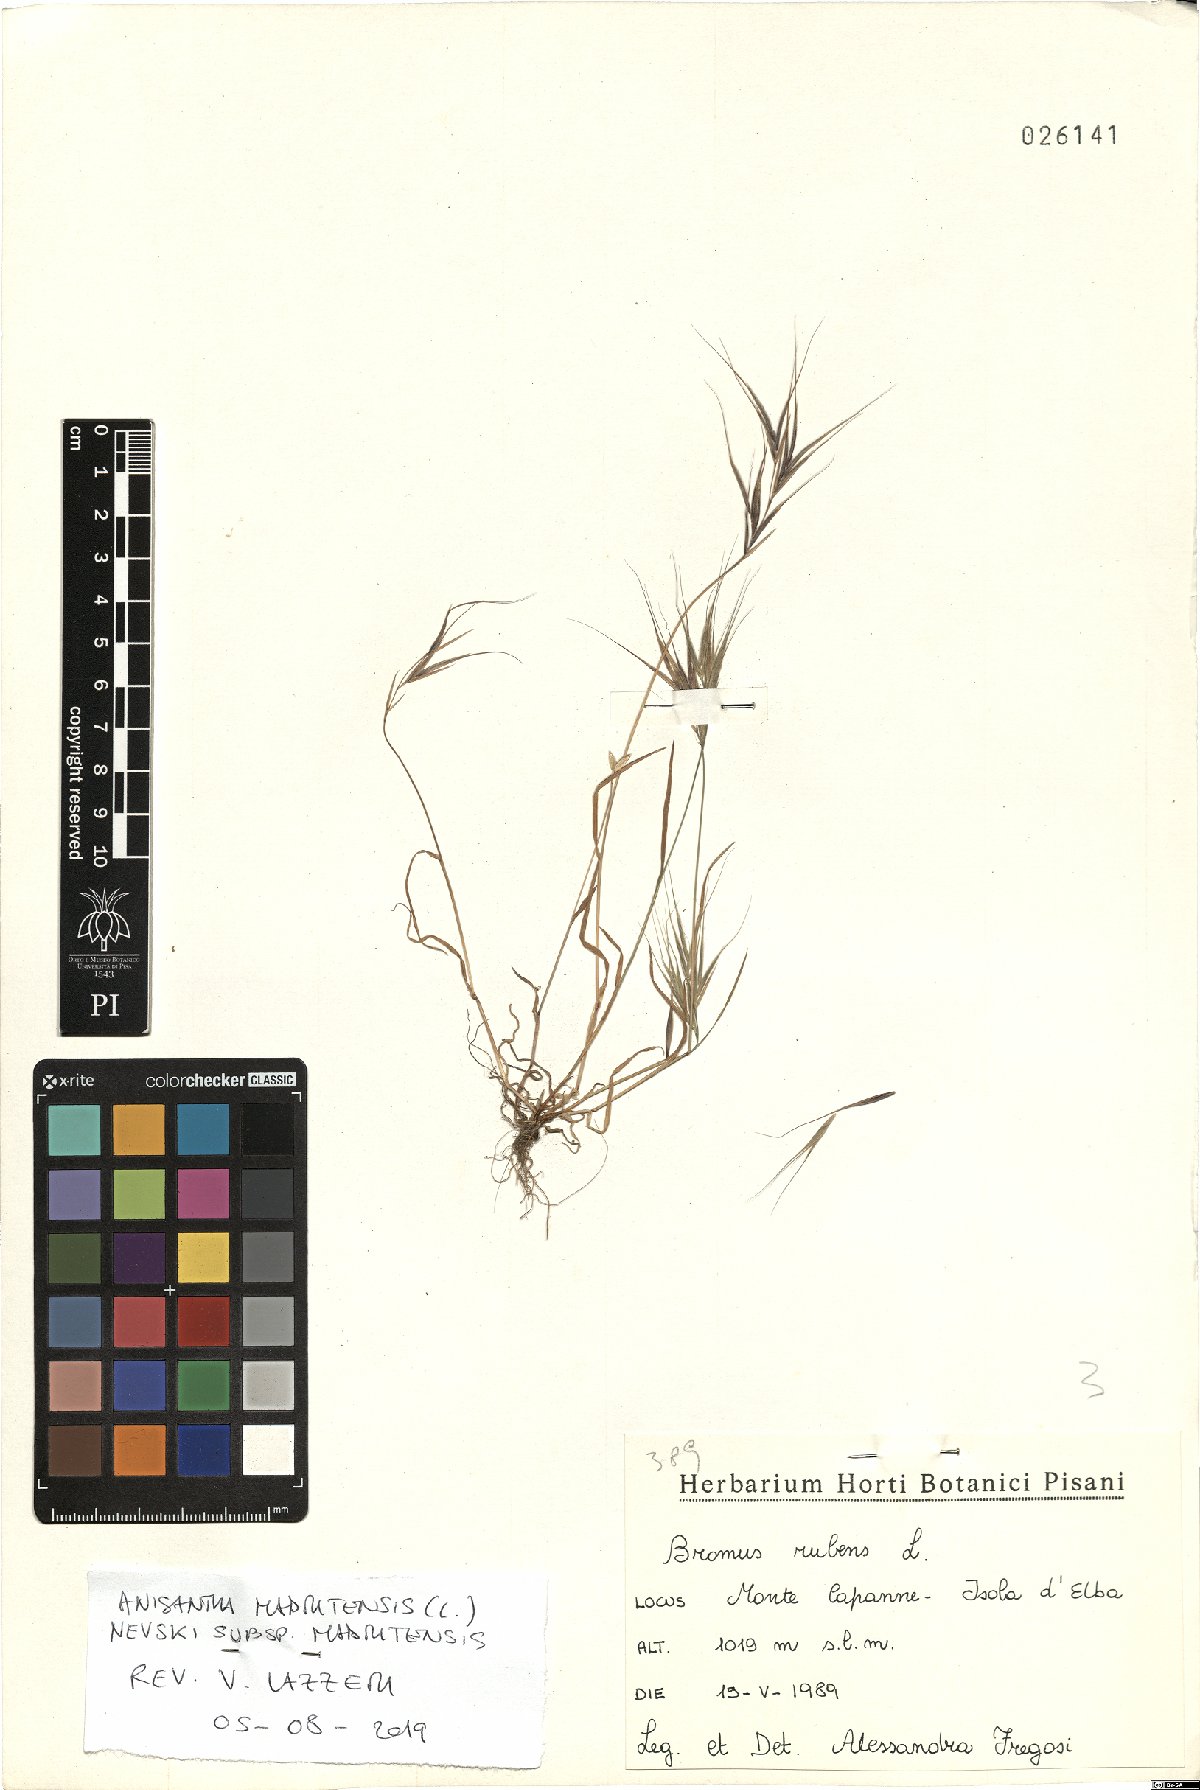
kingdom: Plantae
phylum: Tracheophyta
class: Liliopsida
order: Poales
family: Poaceae
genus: Bromus
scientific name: Bromus madritensis
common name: Compact brome
